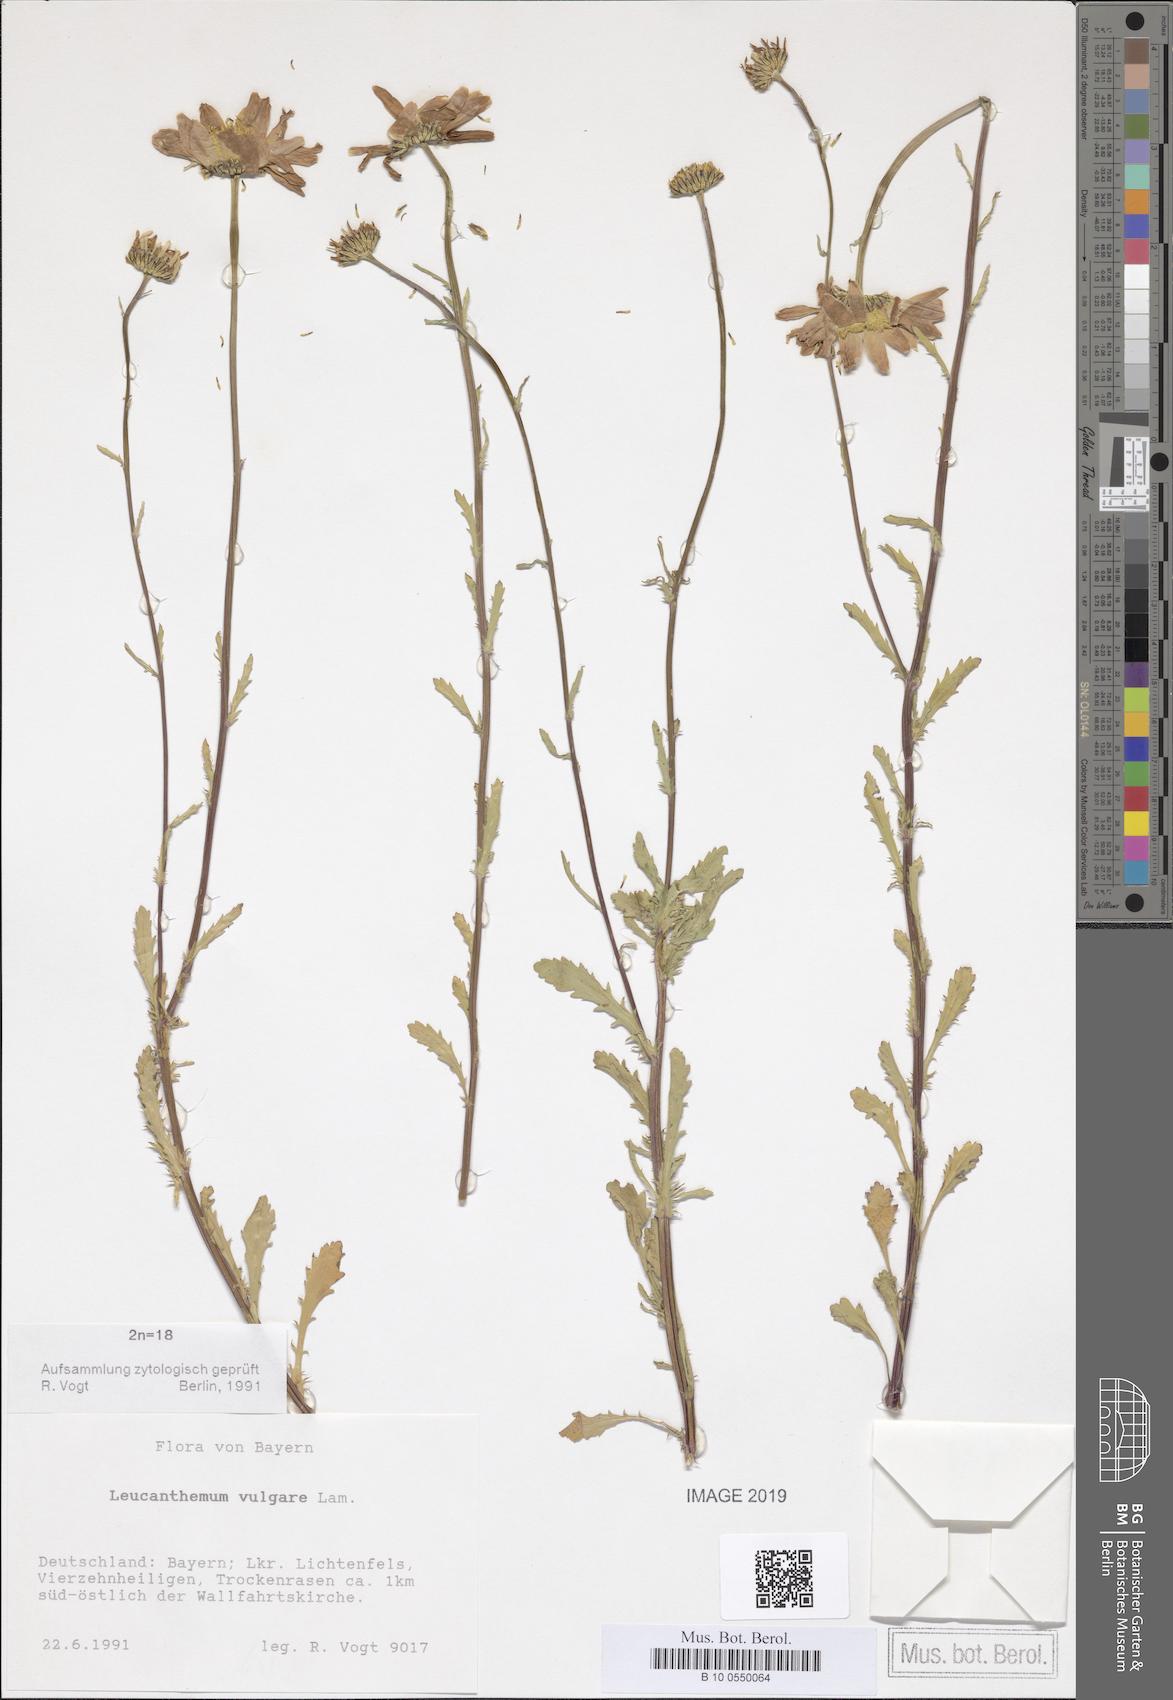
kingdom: Plantae
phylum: Tracheophyta
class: Magnoliopsida
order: Asterales
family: Asteraceae
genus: Leucanthemum
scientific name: Leucanthemum vulgare
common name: Oxeye daisy
